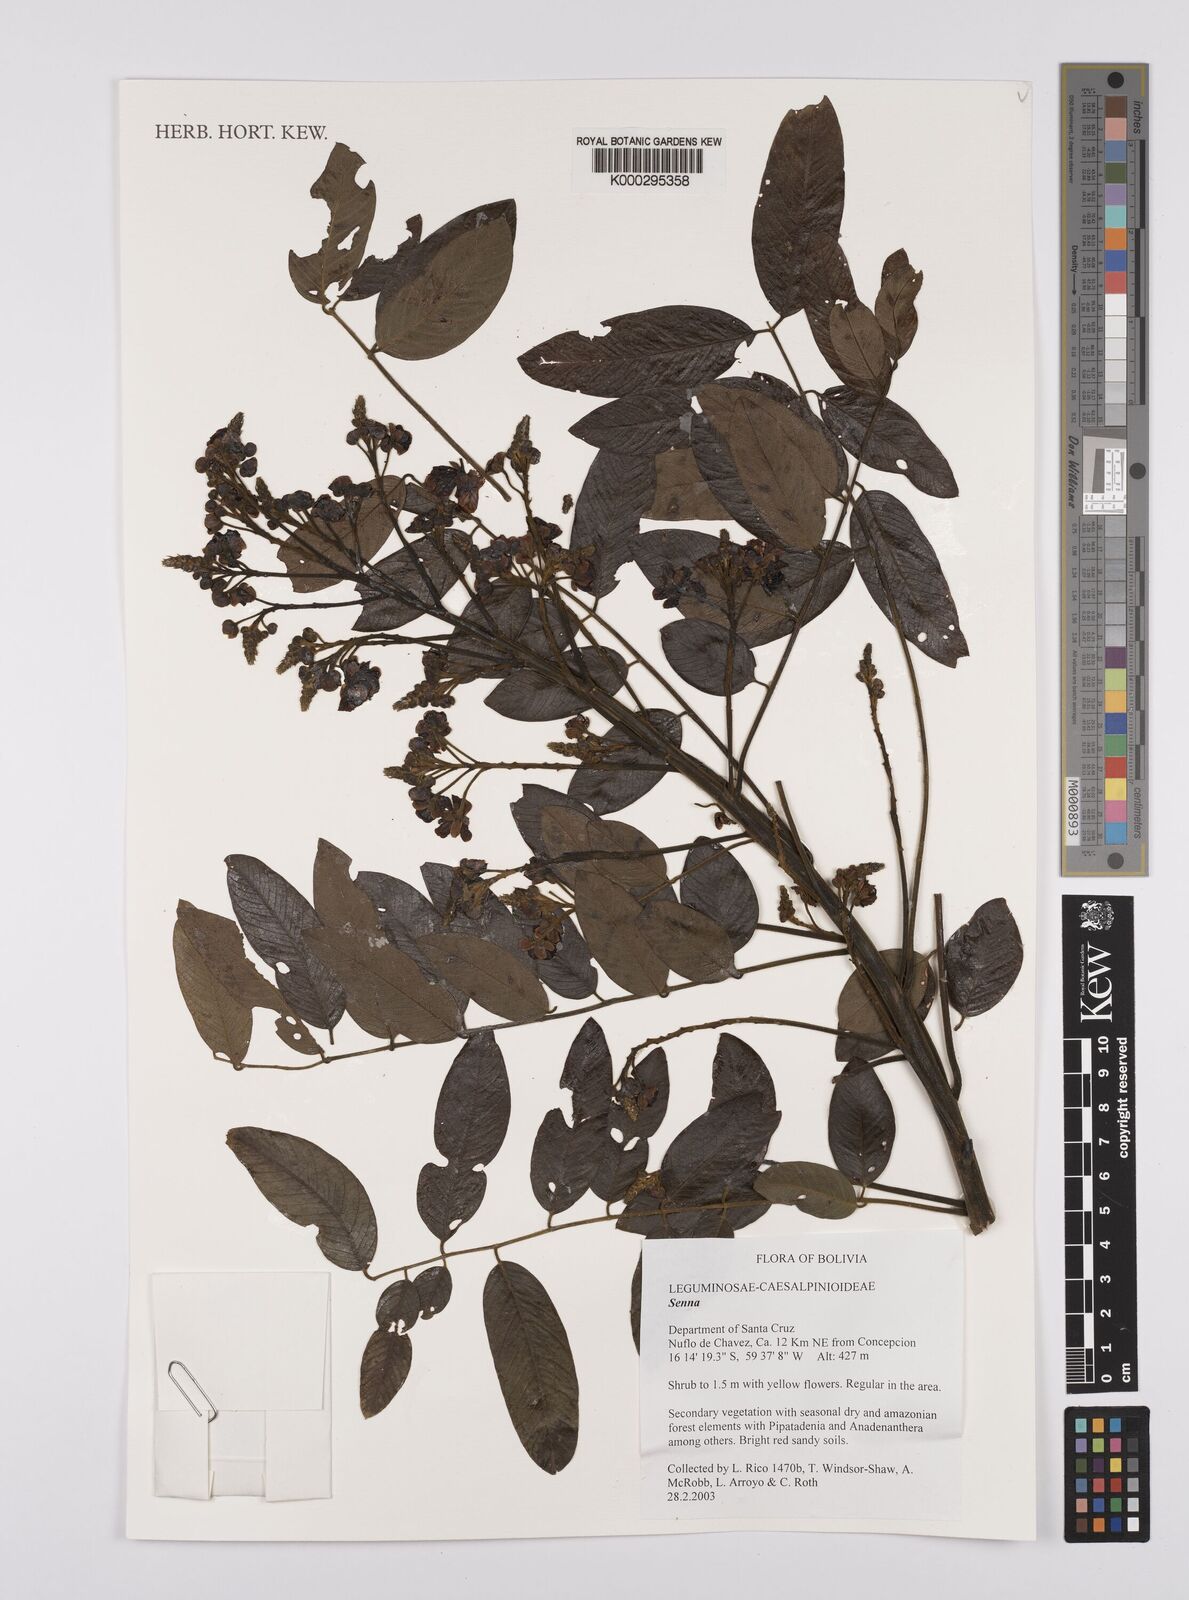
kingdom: Plantae
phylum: Tracheophyta
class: Magnoliopsida
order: Fabales
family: Fabaceae
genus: Senna
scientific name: Senna spectabilis
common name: Casia amarilla
